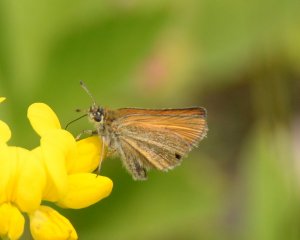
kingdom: Animalia
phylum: Arthropoda
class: Insecta
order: Lepidoptera
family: Hesperiidae
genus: Thymelicus
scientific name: Thymelicus lineola
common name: European Skipper
